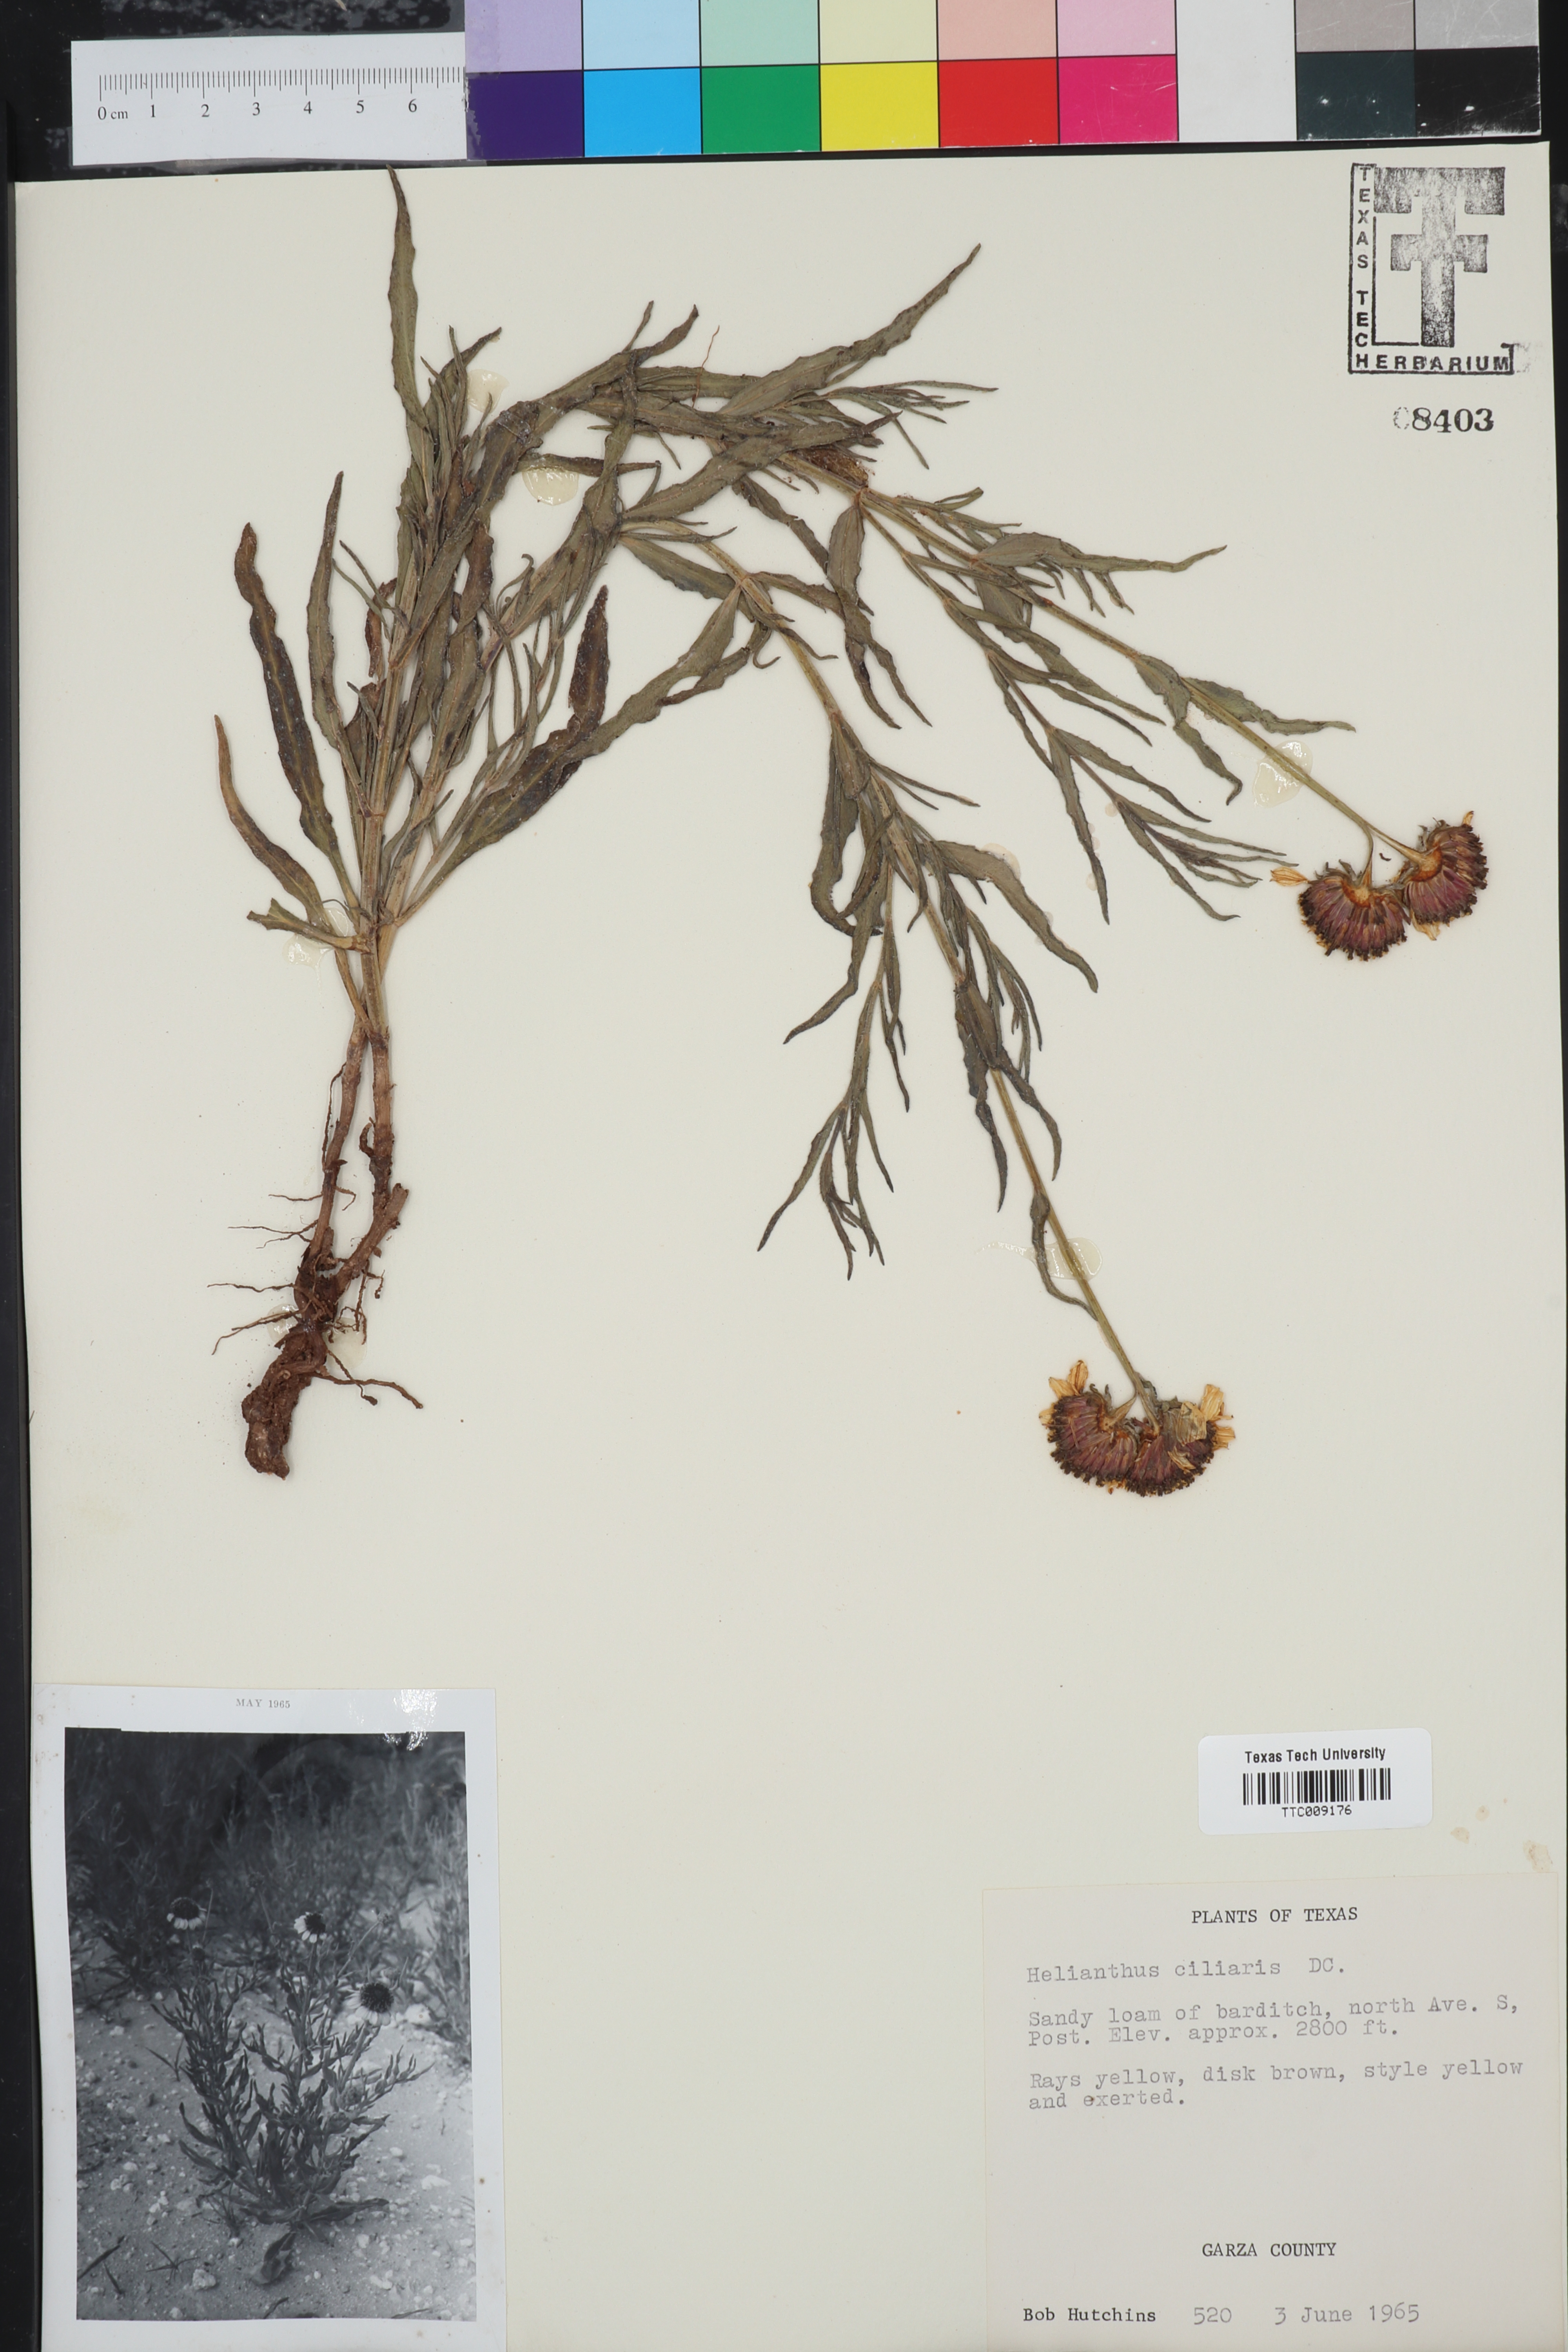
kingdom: Plantae
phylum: Tracheophyta
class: Magnoliopsida
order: Asterales
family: Asteraceae
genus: Helianthus
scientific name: Helianthus ciliaris
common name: Texas blueweed
